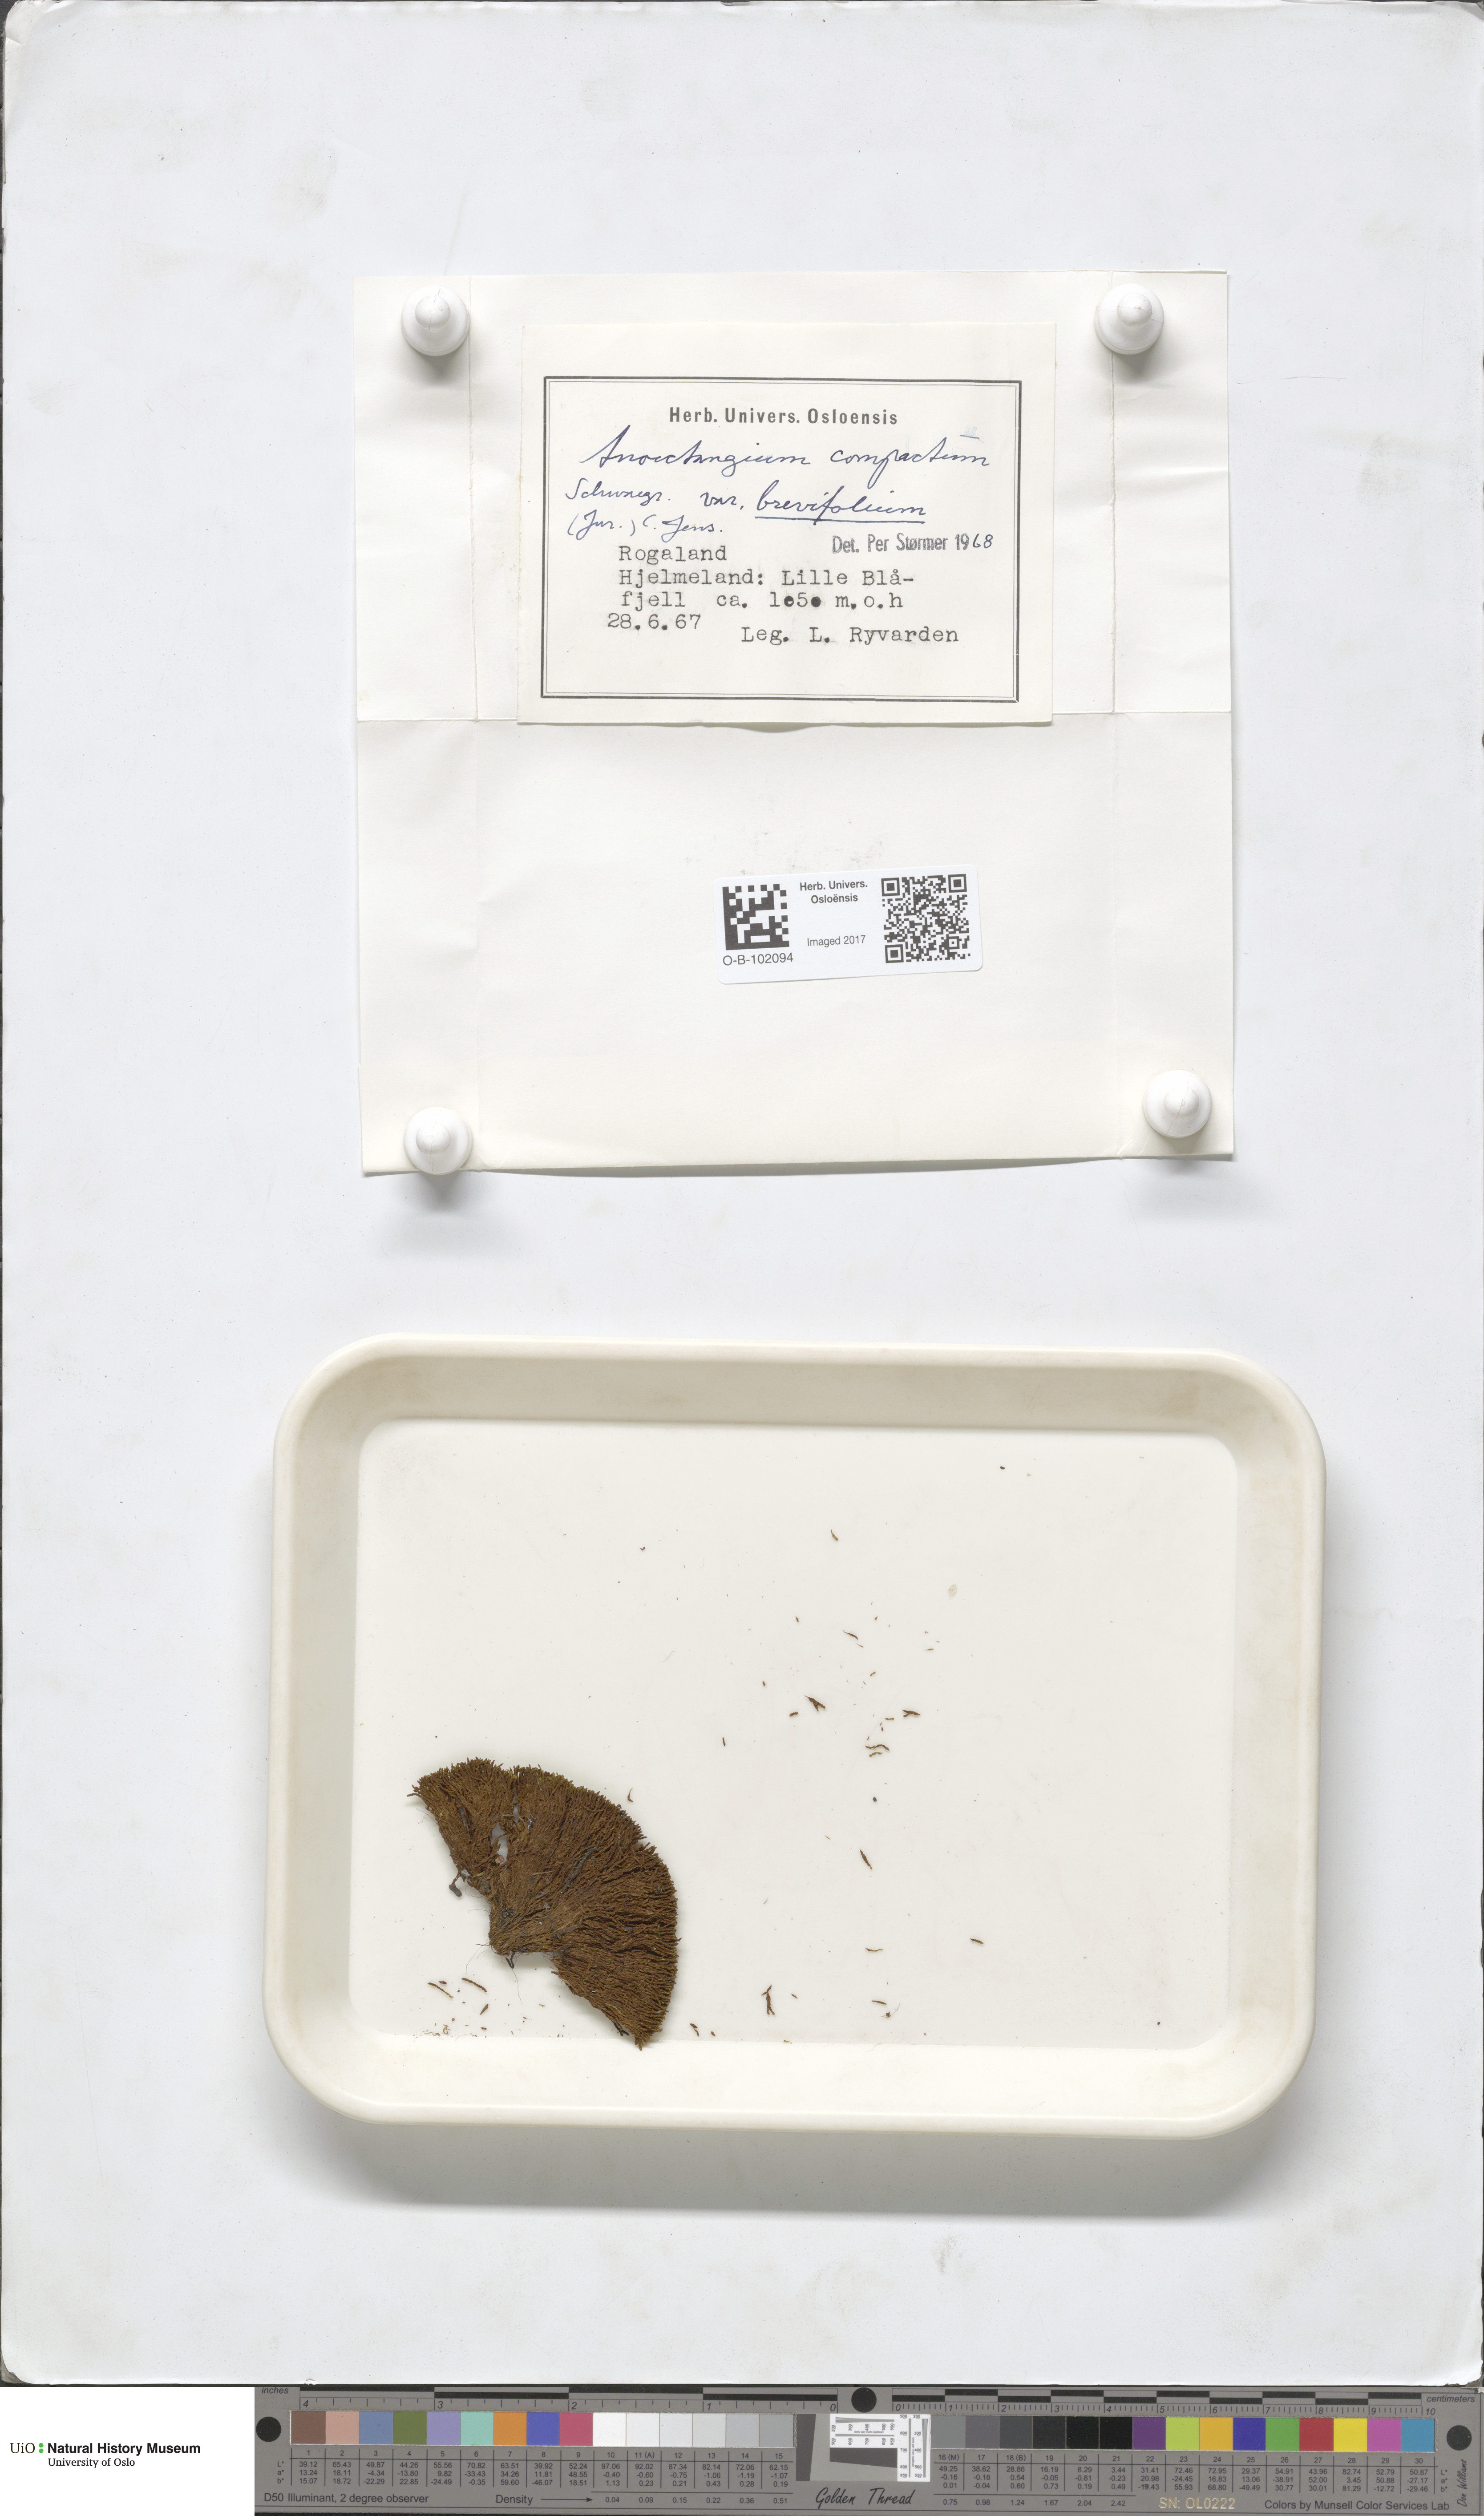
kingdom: Plantae
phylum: Bryophyta
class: Bryopsida
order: Pottiales
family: Pottiaceae
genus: Anoectangium
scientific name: Anoectangium aestivum
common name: Summer-moss
